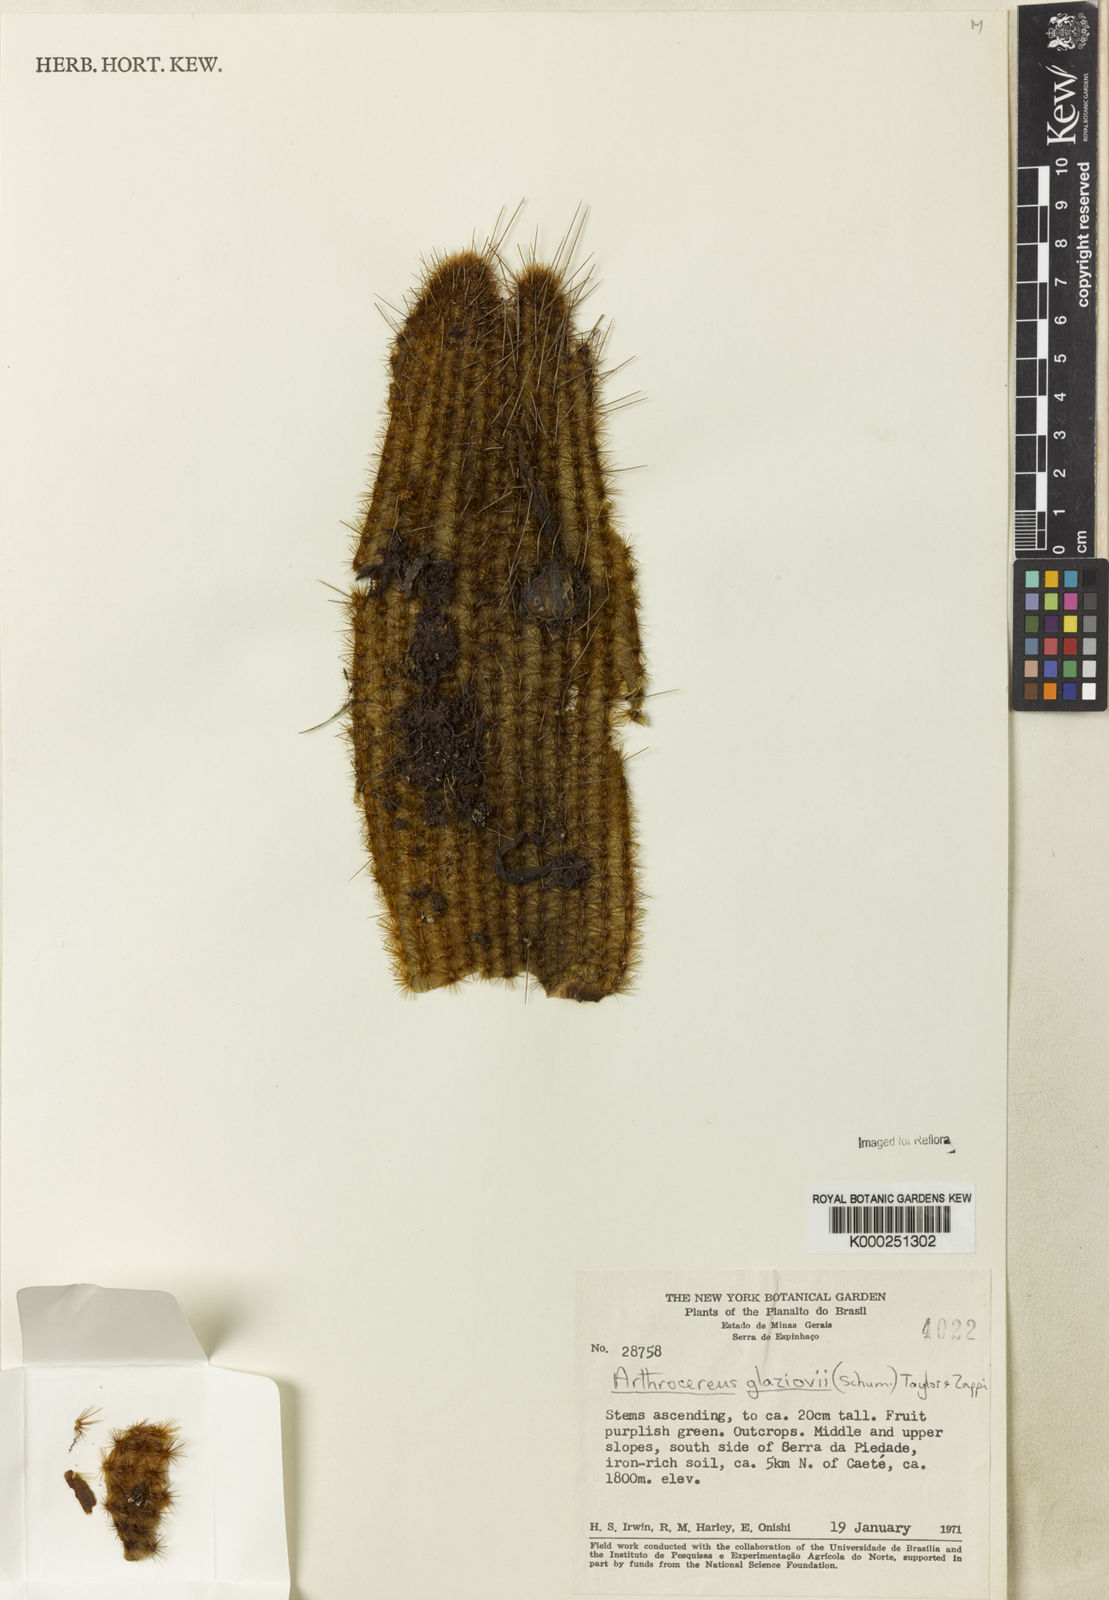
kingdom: Plantae
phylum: Tracheophyta
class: Magnoliopsida
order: Caryophyllales
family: Cactaceae
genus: Arthrocereus
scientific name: Arthrocereus glaziovii
